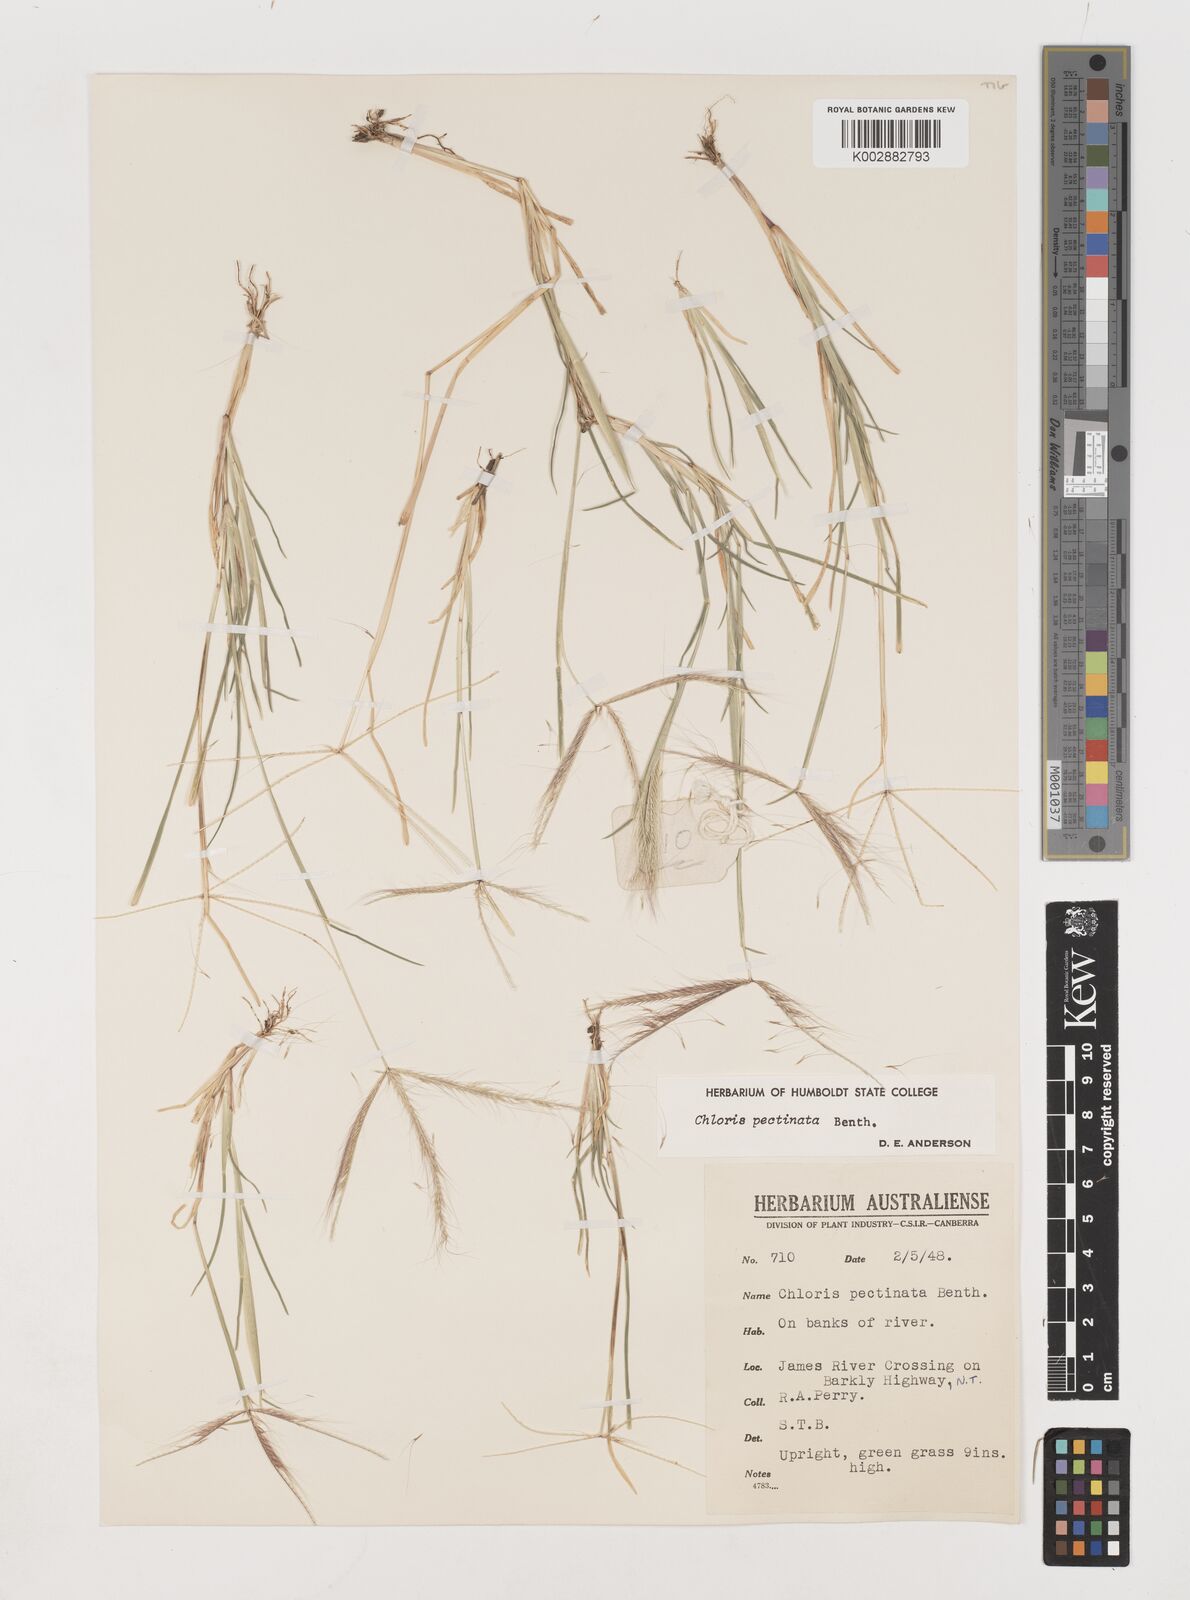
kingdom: Plantae
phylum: Tracheophyta
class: Liliopsida
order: Poales
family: Poaceae
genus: Chloris
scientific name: Chloris pectinata
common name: Comb windmill grass
